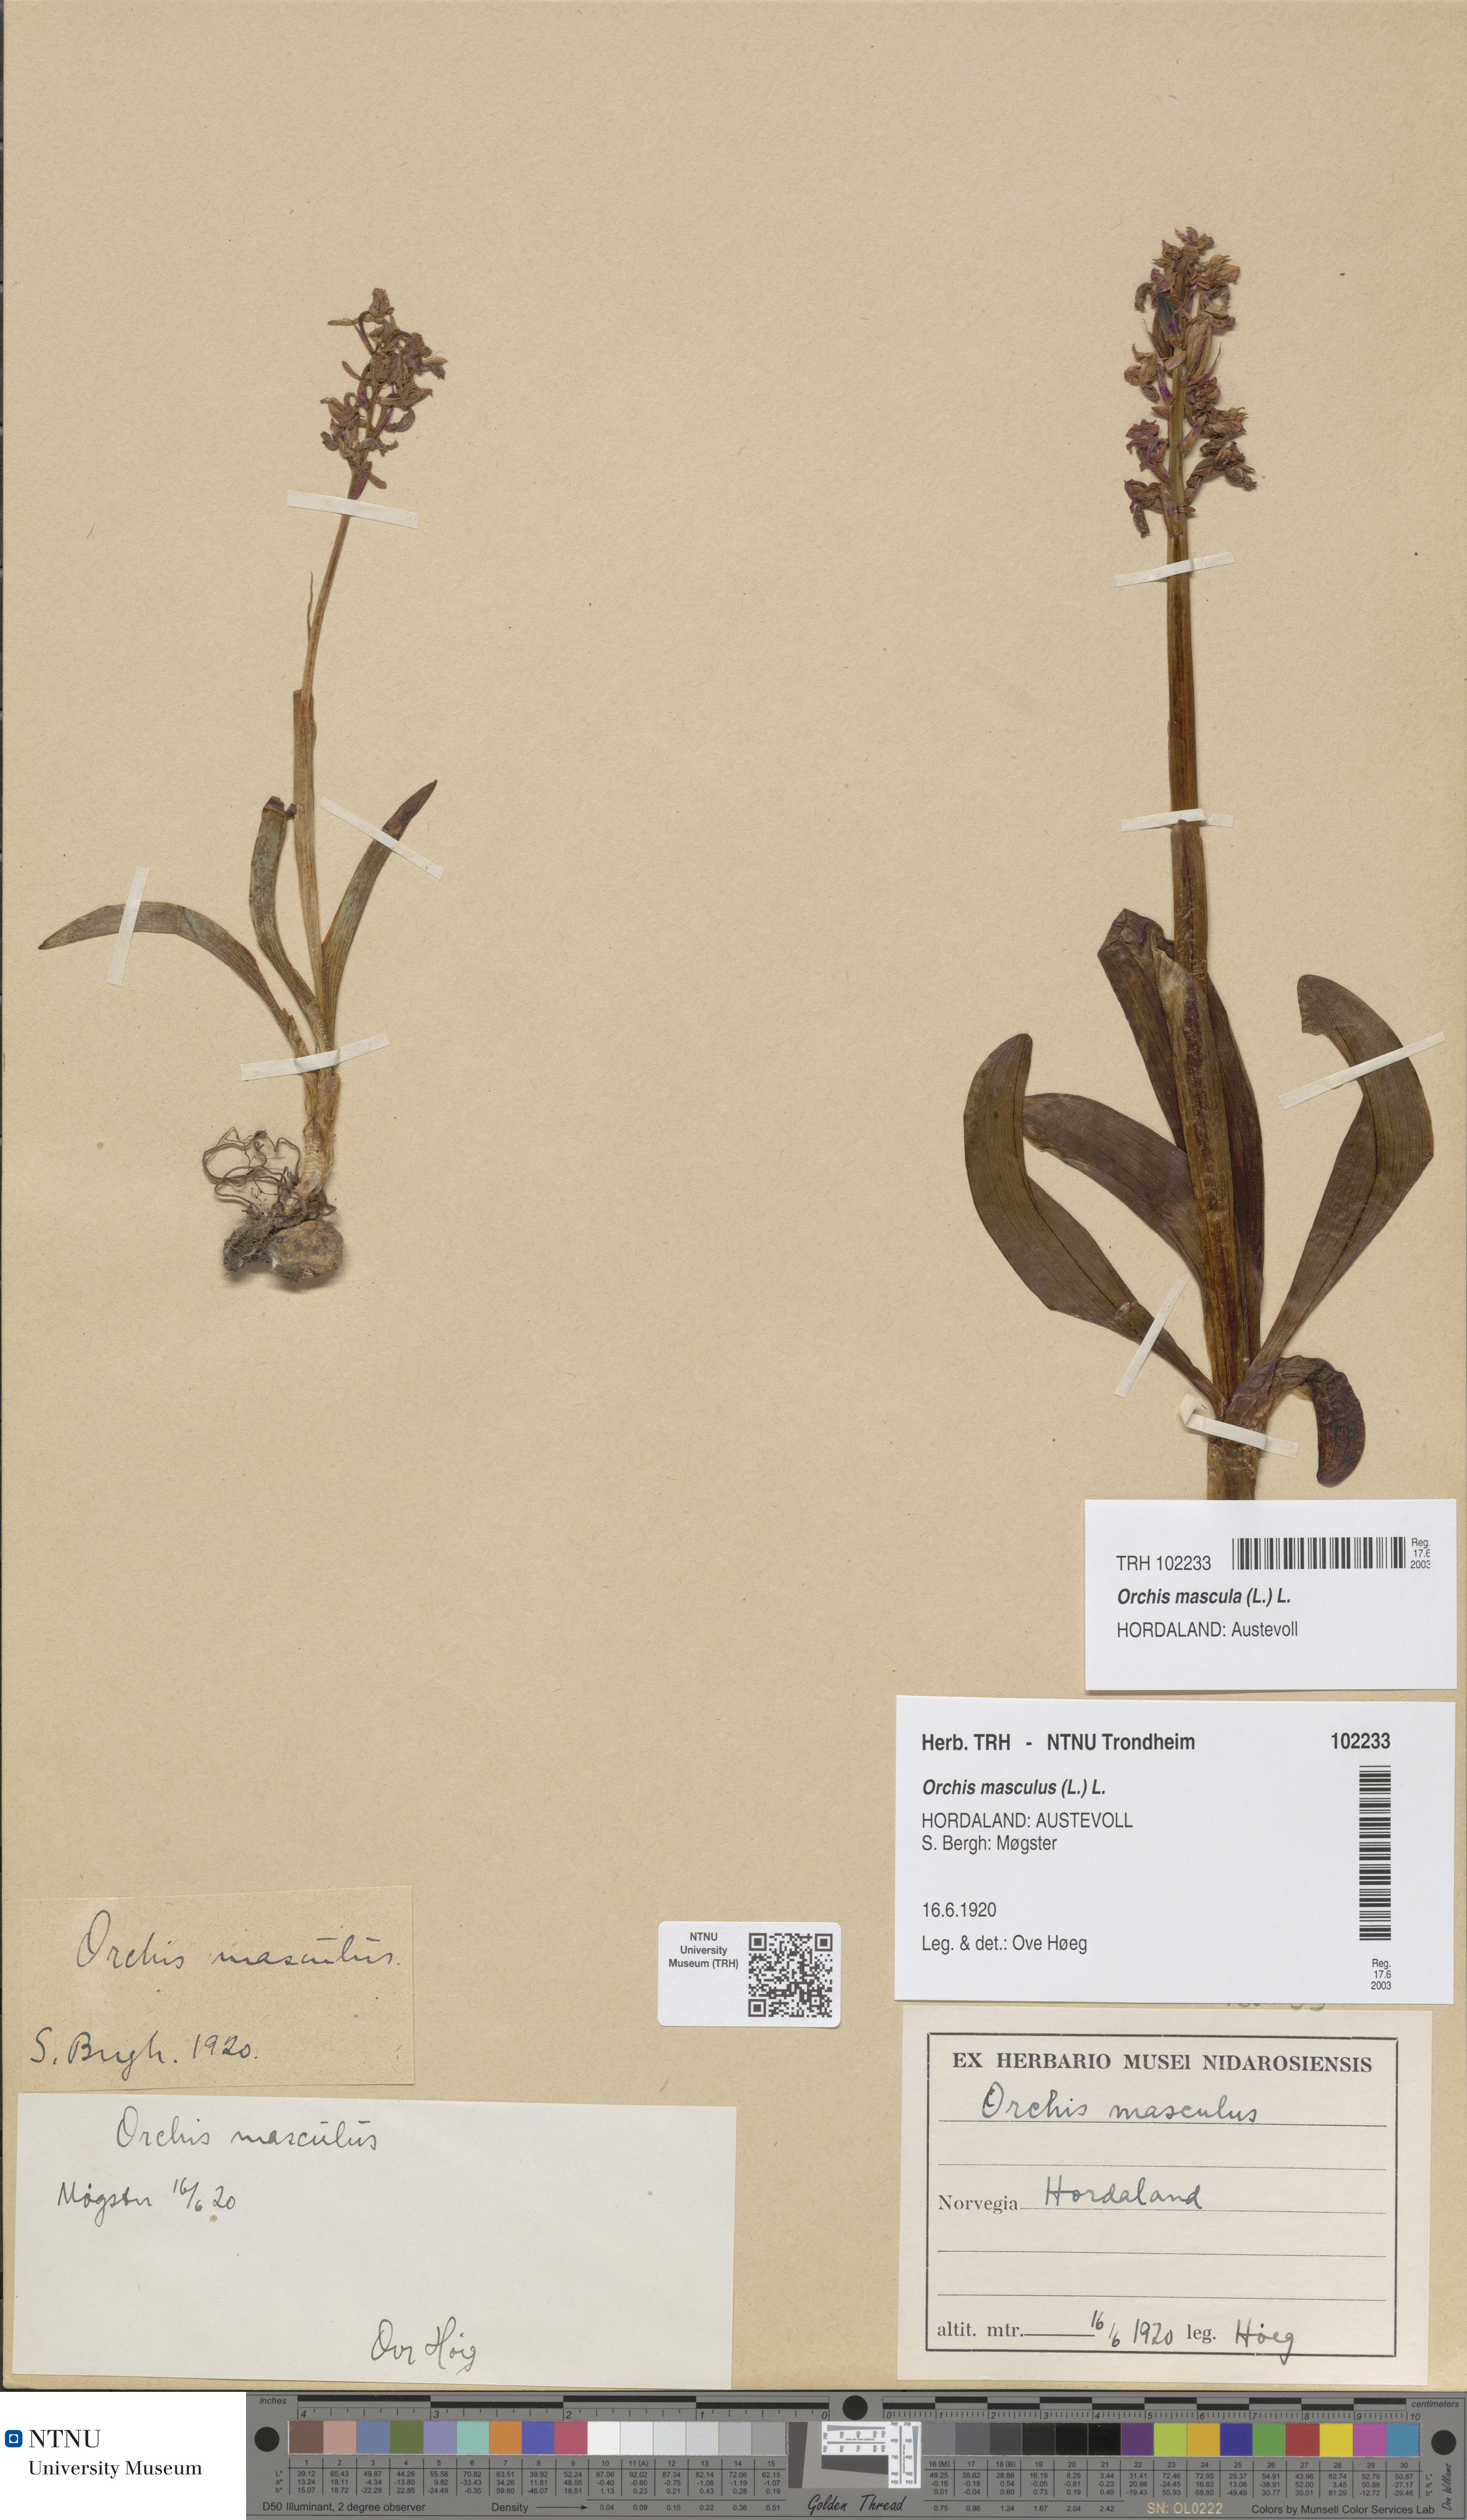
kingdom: Plantae
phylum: Tracheophyta
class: Liliopsida
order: Asparagales
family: Orchidaceae
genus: Orchis
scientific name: Orchis mascula
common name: Early-purple orchid
